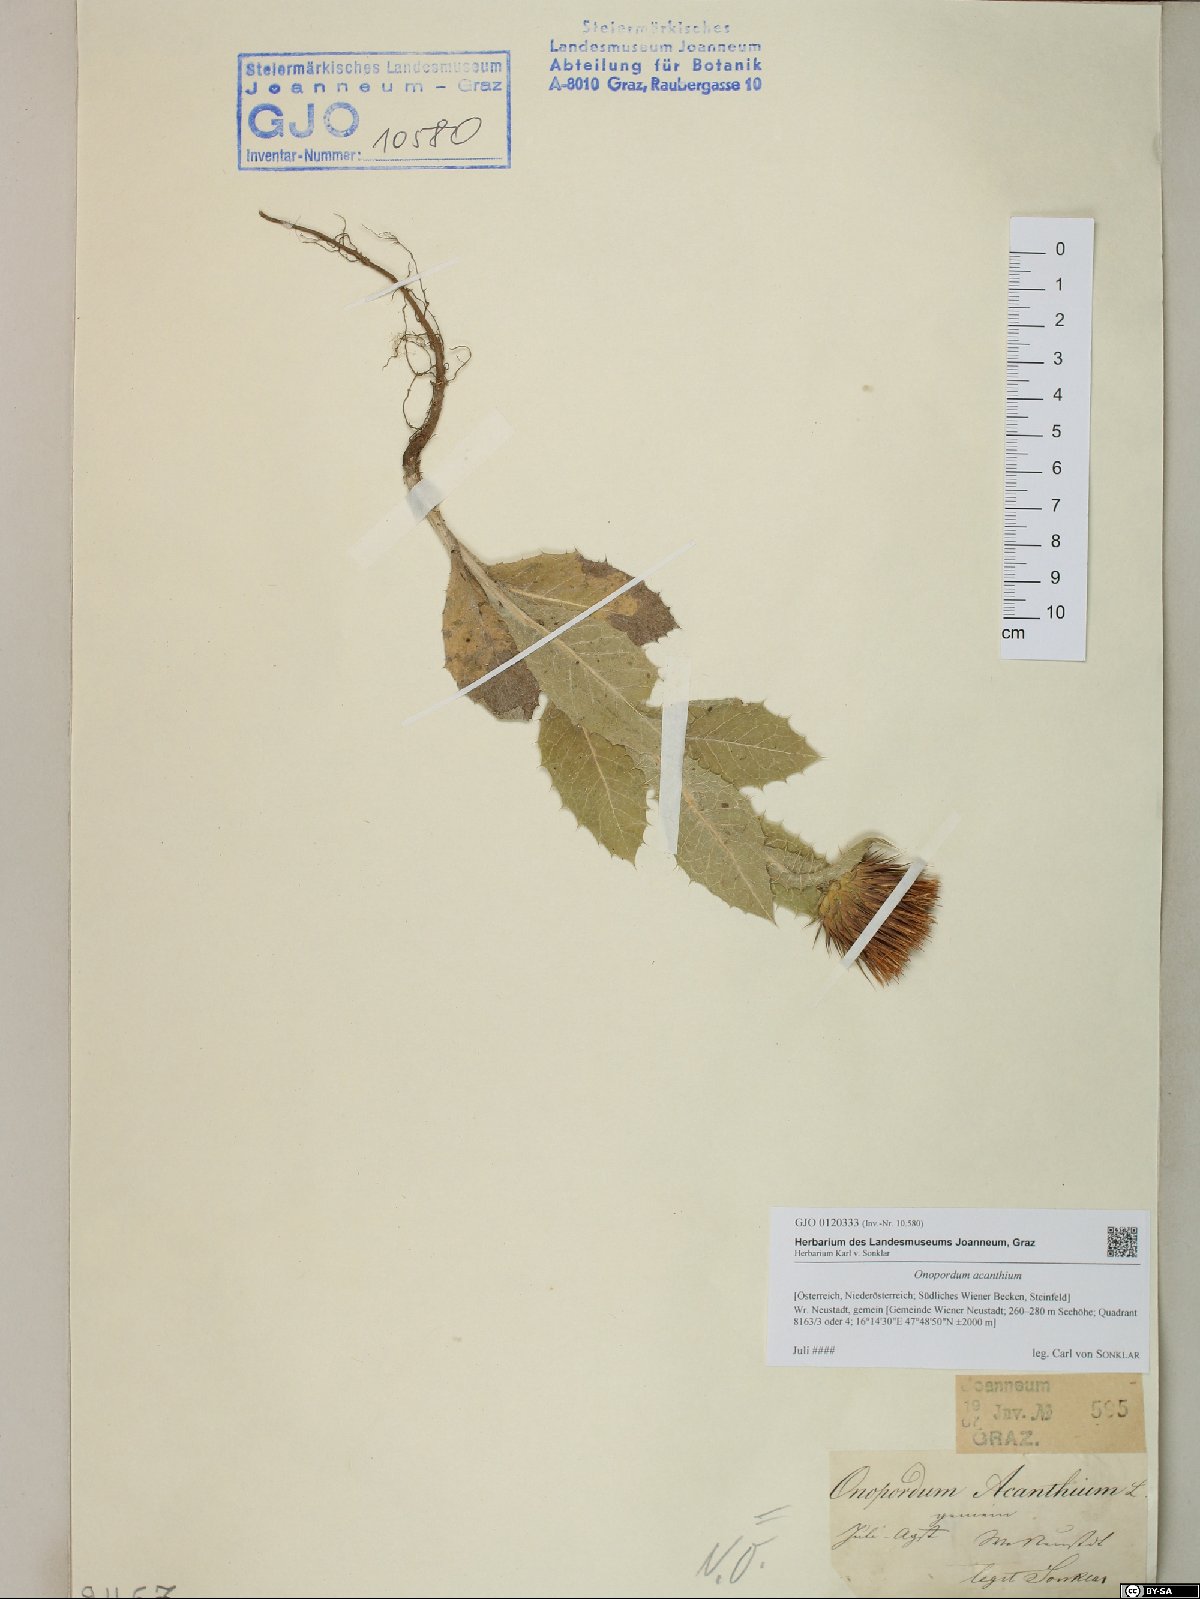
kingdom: Plantae
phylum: Tracheophyta
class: Magnoliopsida
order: Asterales
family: Asteraceae
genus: Onopordum
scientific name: Onopordum acanthium
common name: Scotch thistle
